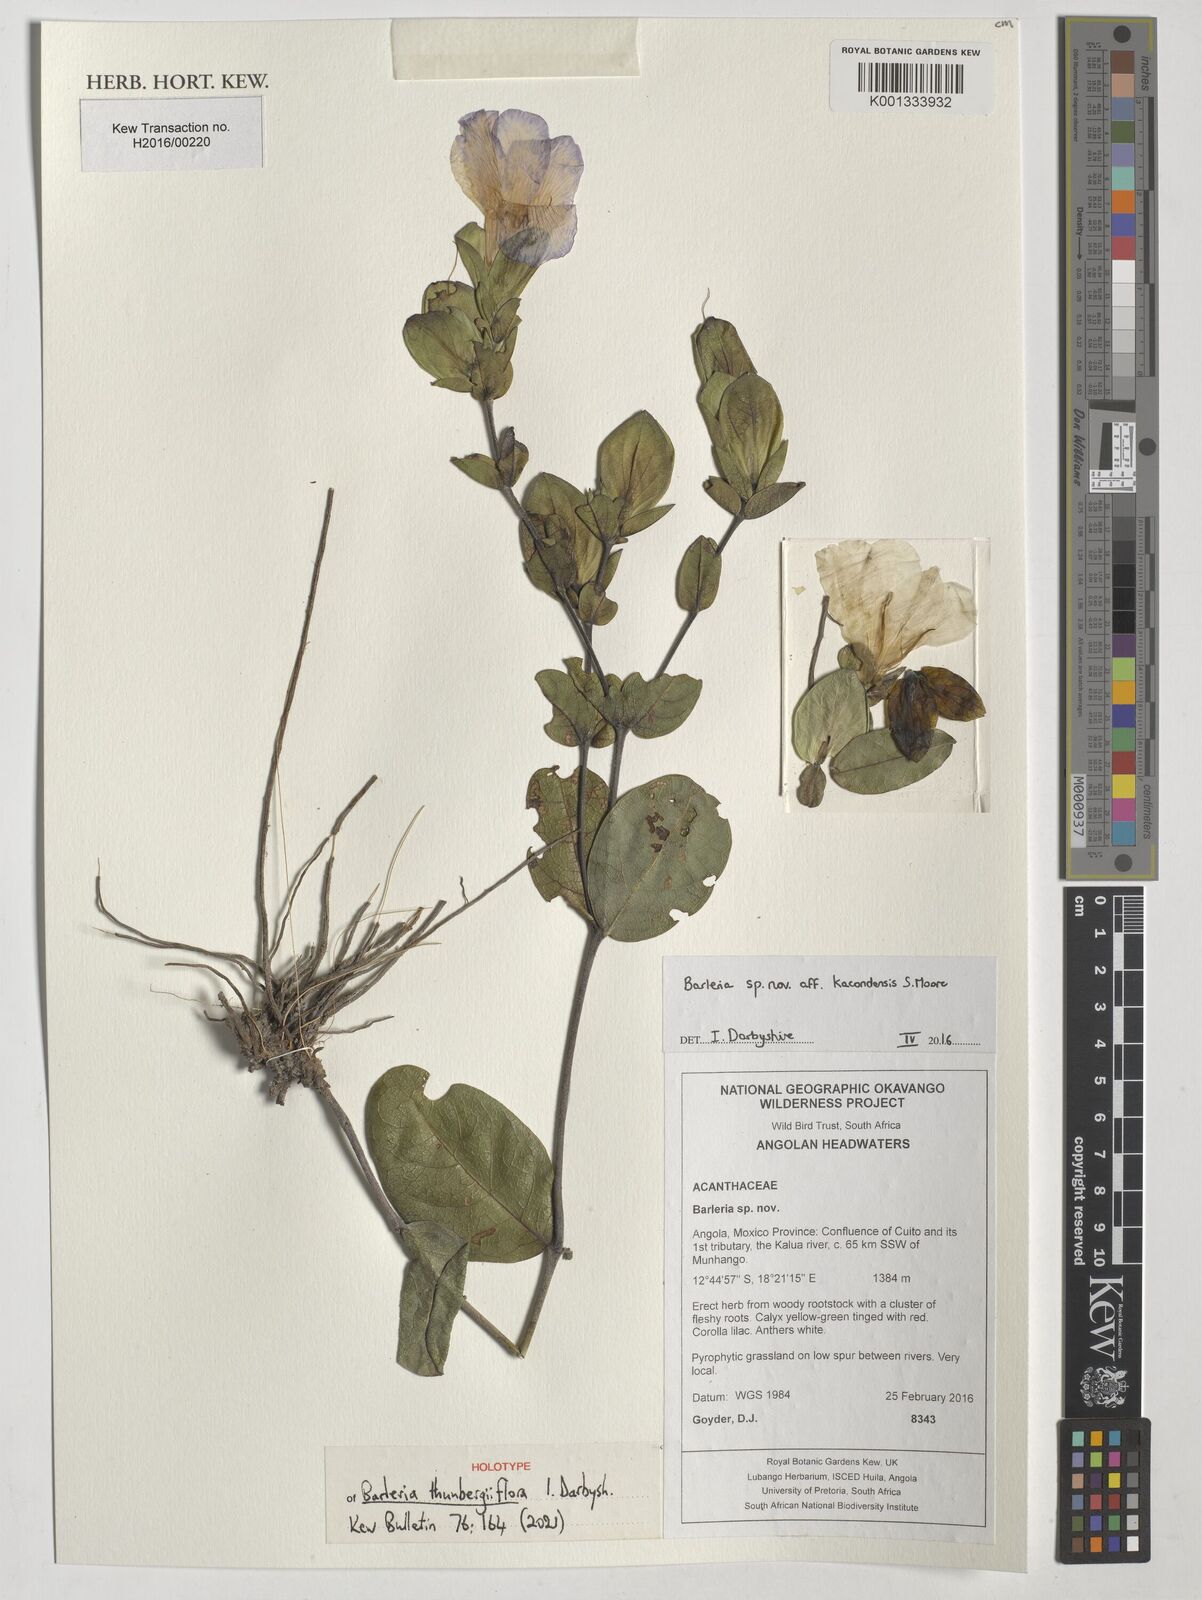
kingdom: Plantae
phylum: Tracheophyta
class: Magnoliopsida
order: Lamiales
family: Acanthaceae
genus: Barleria
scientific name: Barleria
